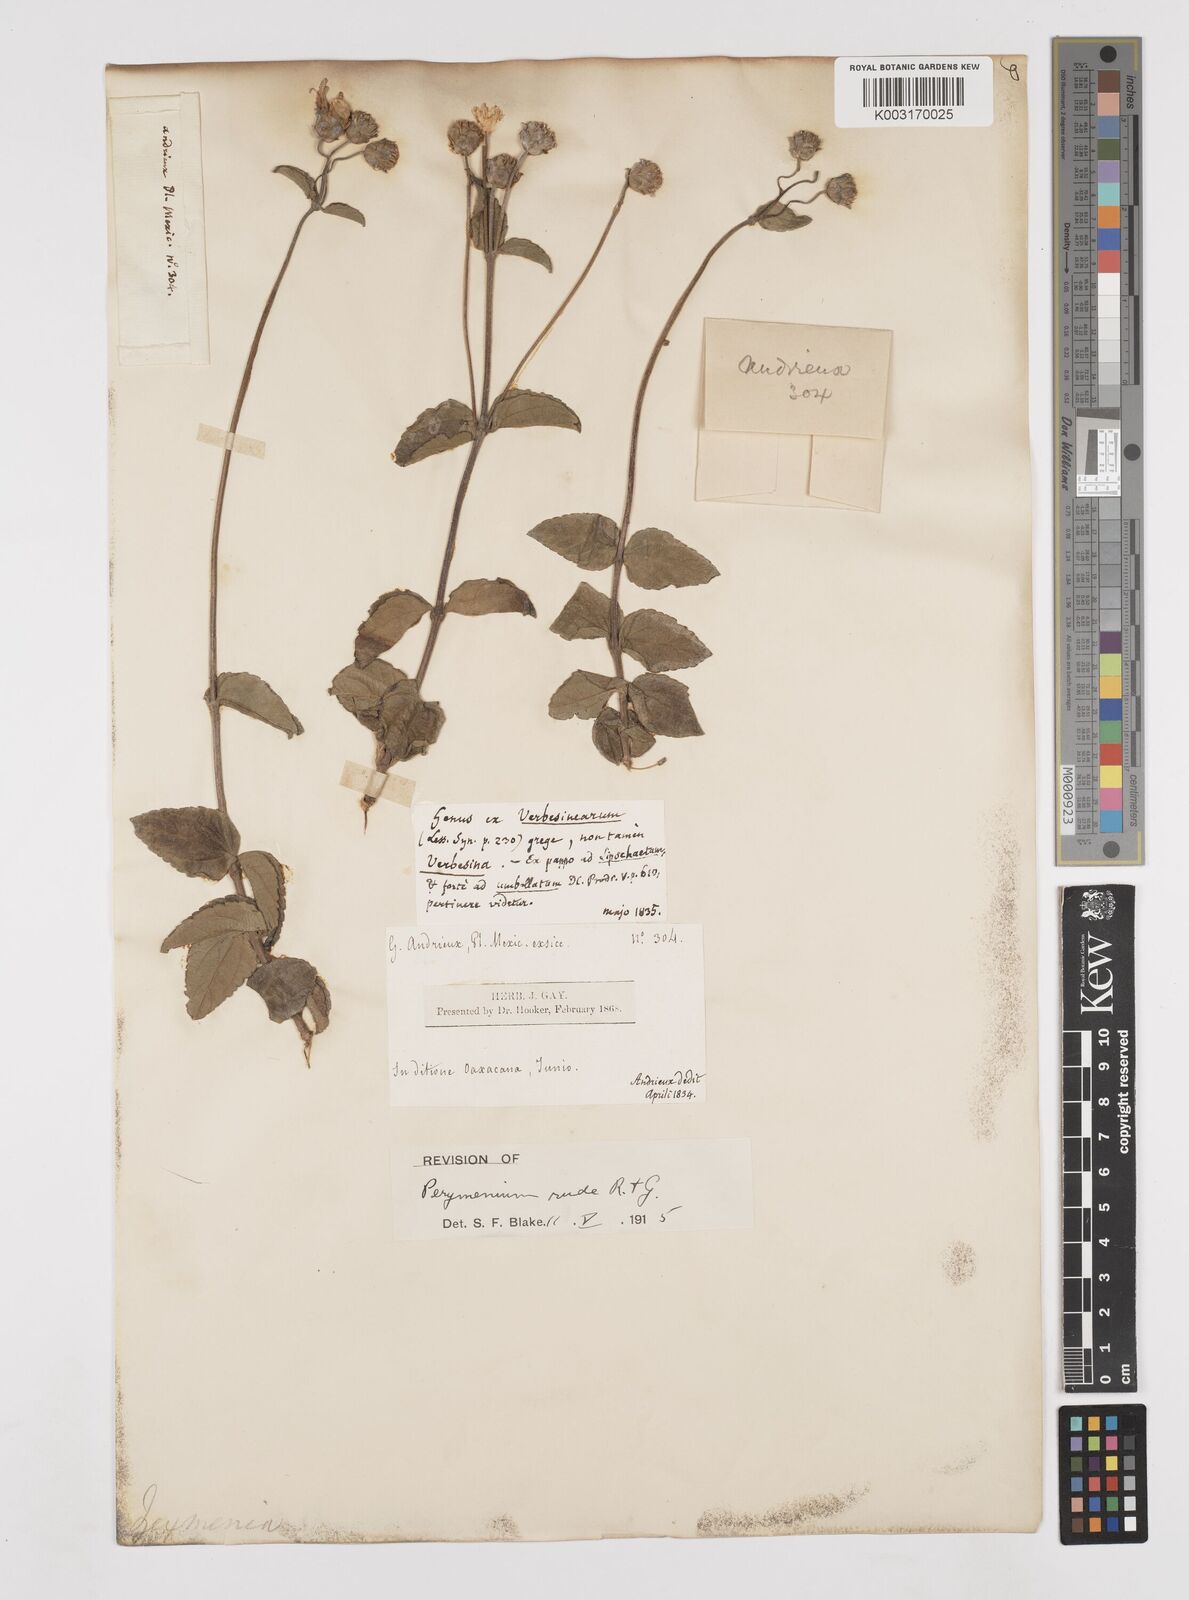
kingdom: Plantae
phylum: Tracheophyta
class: Magnoliopsida
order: Asterales
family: Asteraceae
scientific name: Asteraceae
